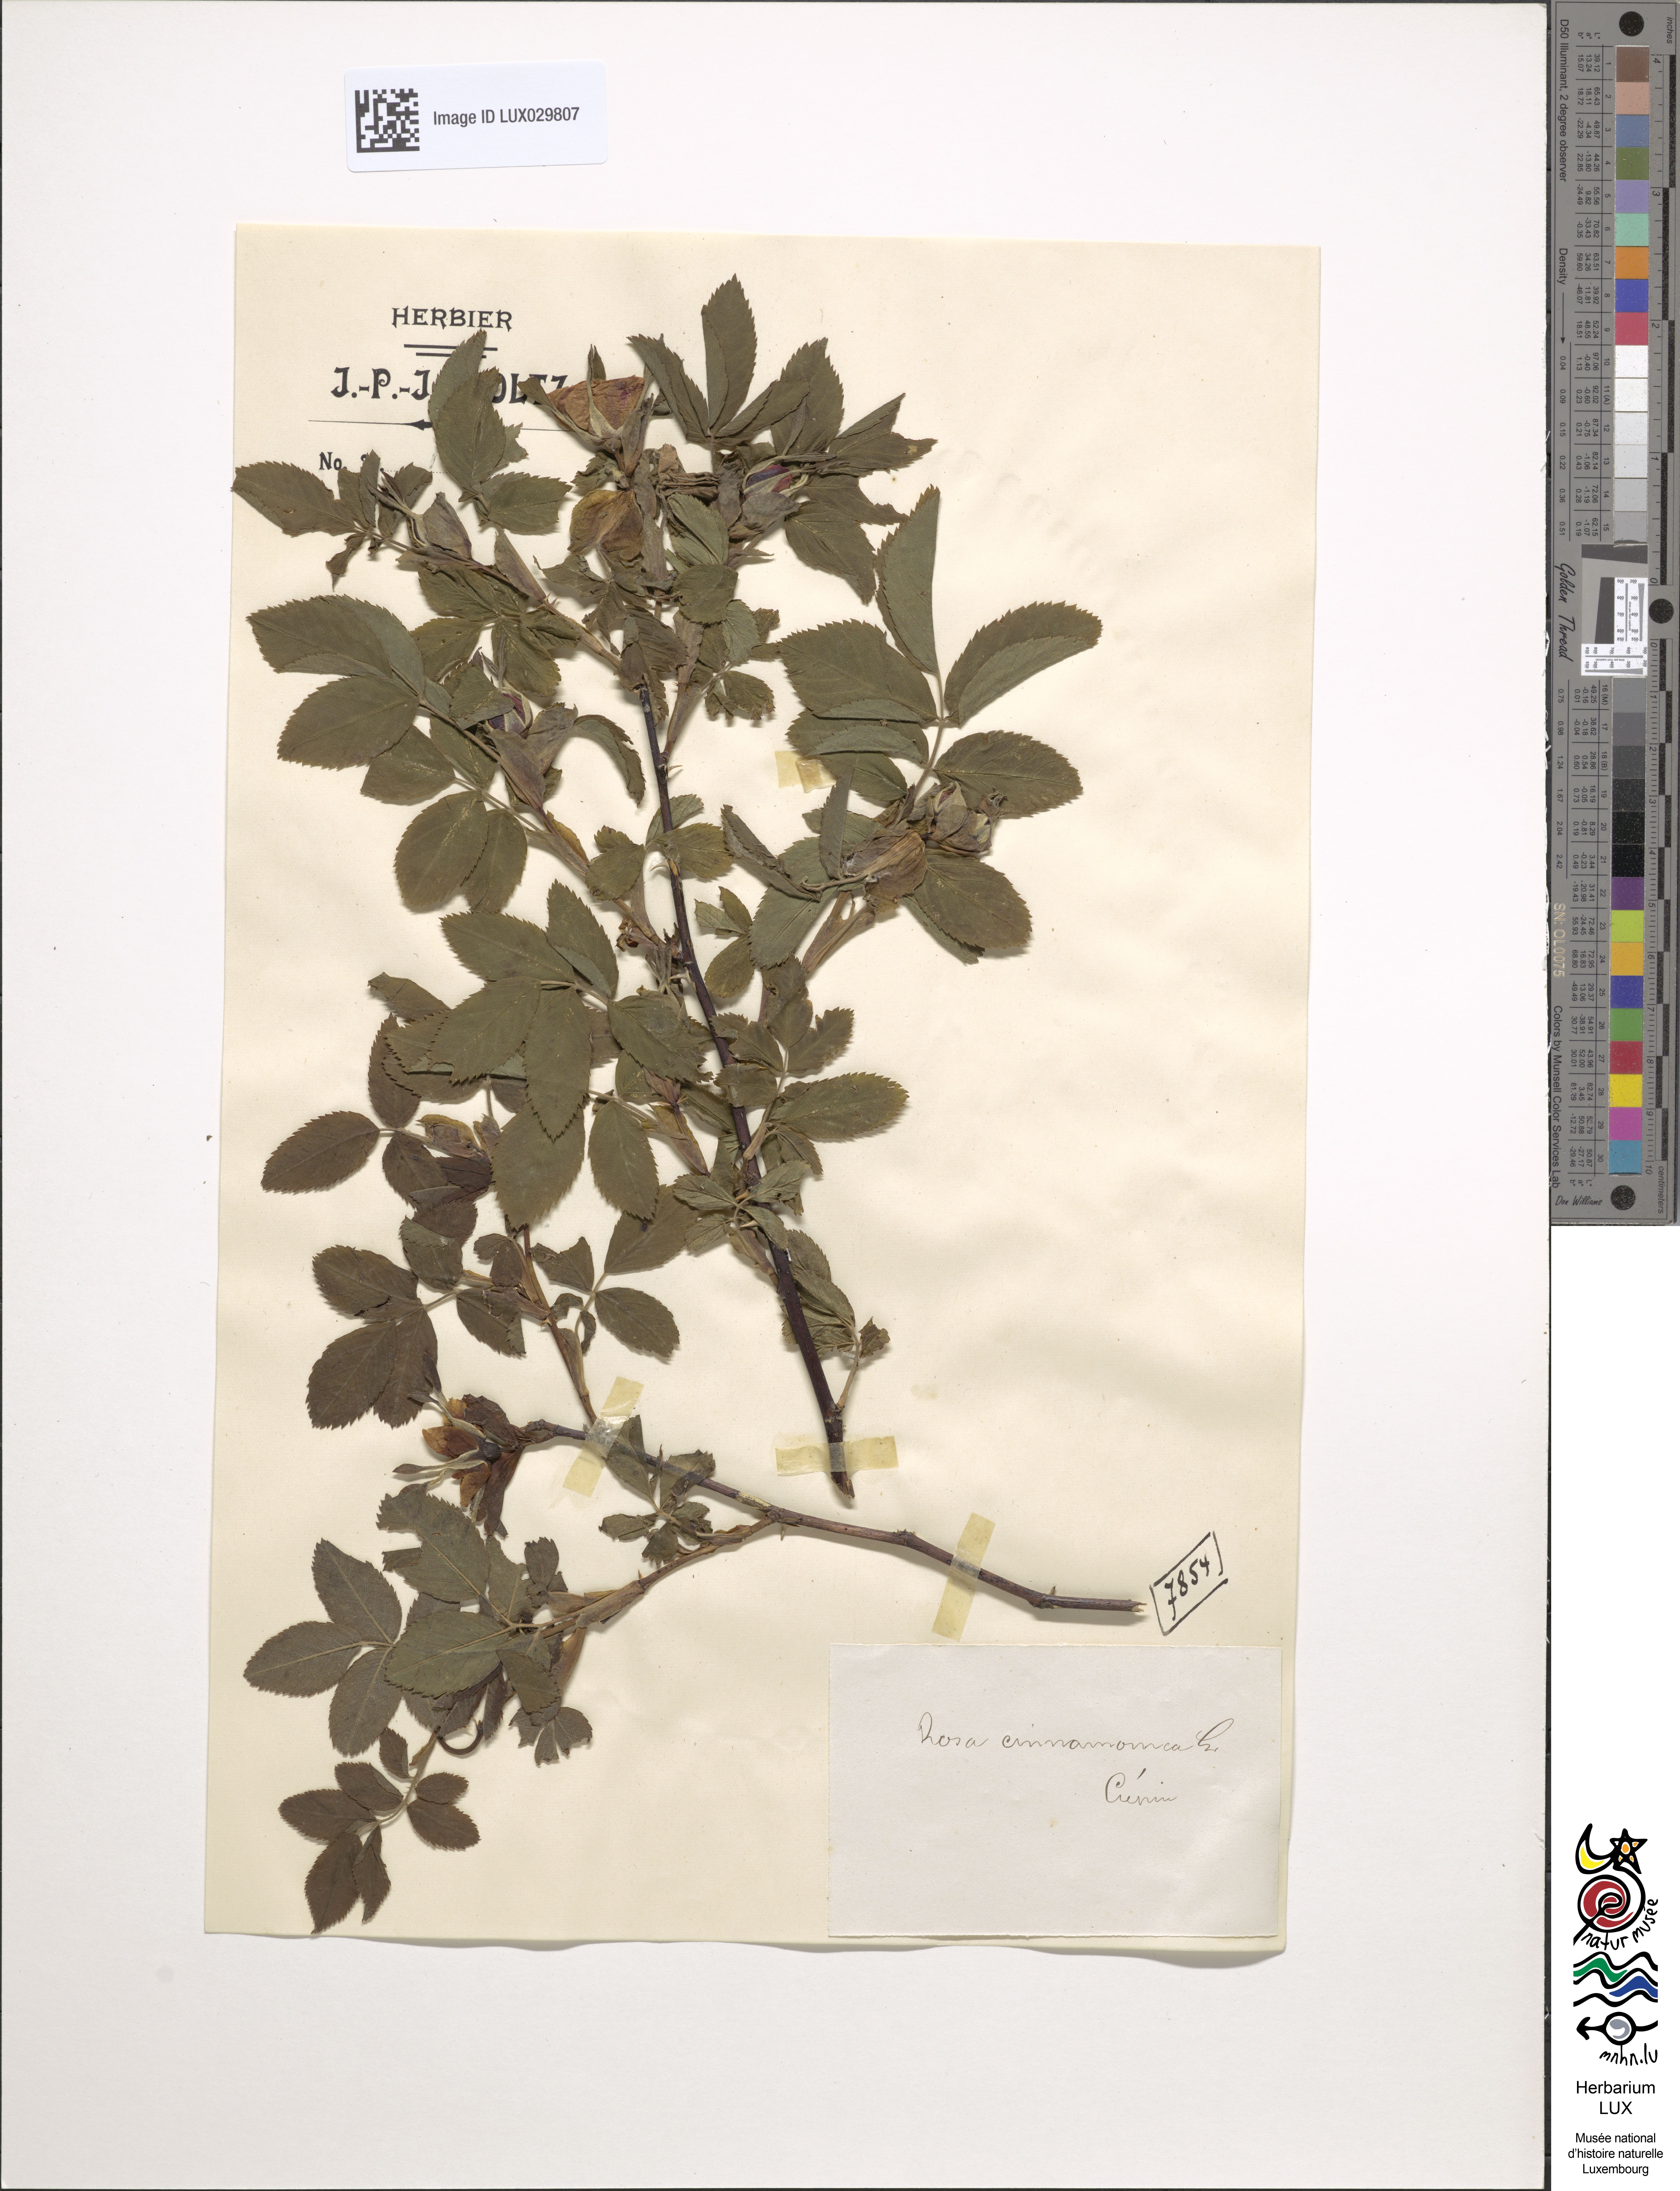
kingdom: Plantae
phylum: Tracheophyta
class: Magnoliopsida
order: Rosales
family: Rosaceae
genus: Rosa
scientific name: Rosa majalis
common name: Cinnamon rose
